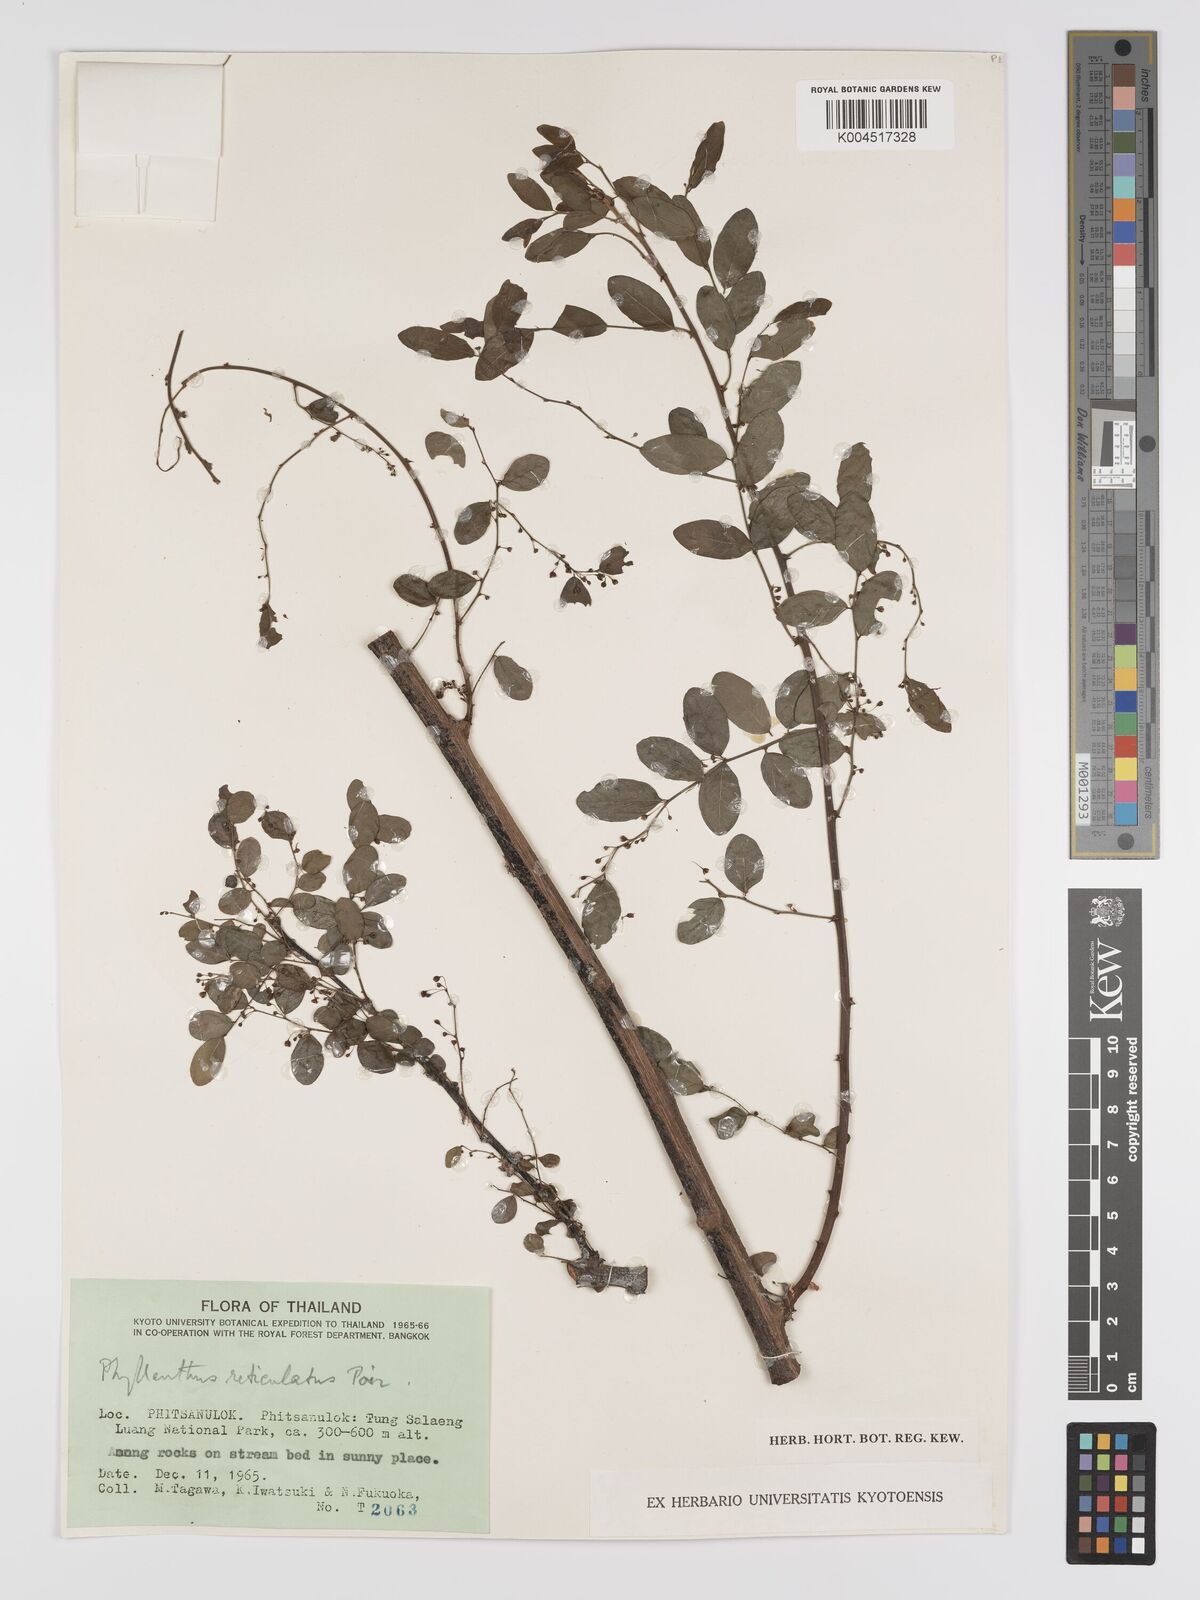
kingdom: Plantae
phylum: Tracheophyta
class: Magnoliopsida
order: Malpighiales
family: Phyllanthaceae
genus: Phyllanthus
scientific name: Phyllanthus reticulatus
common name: Potato bush
